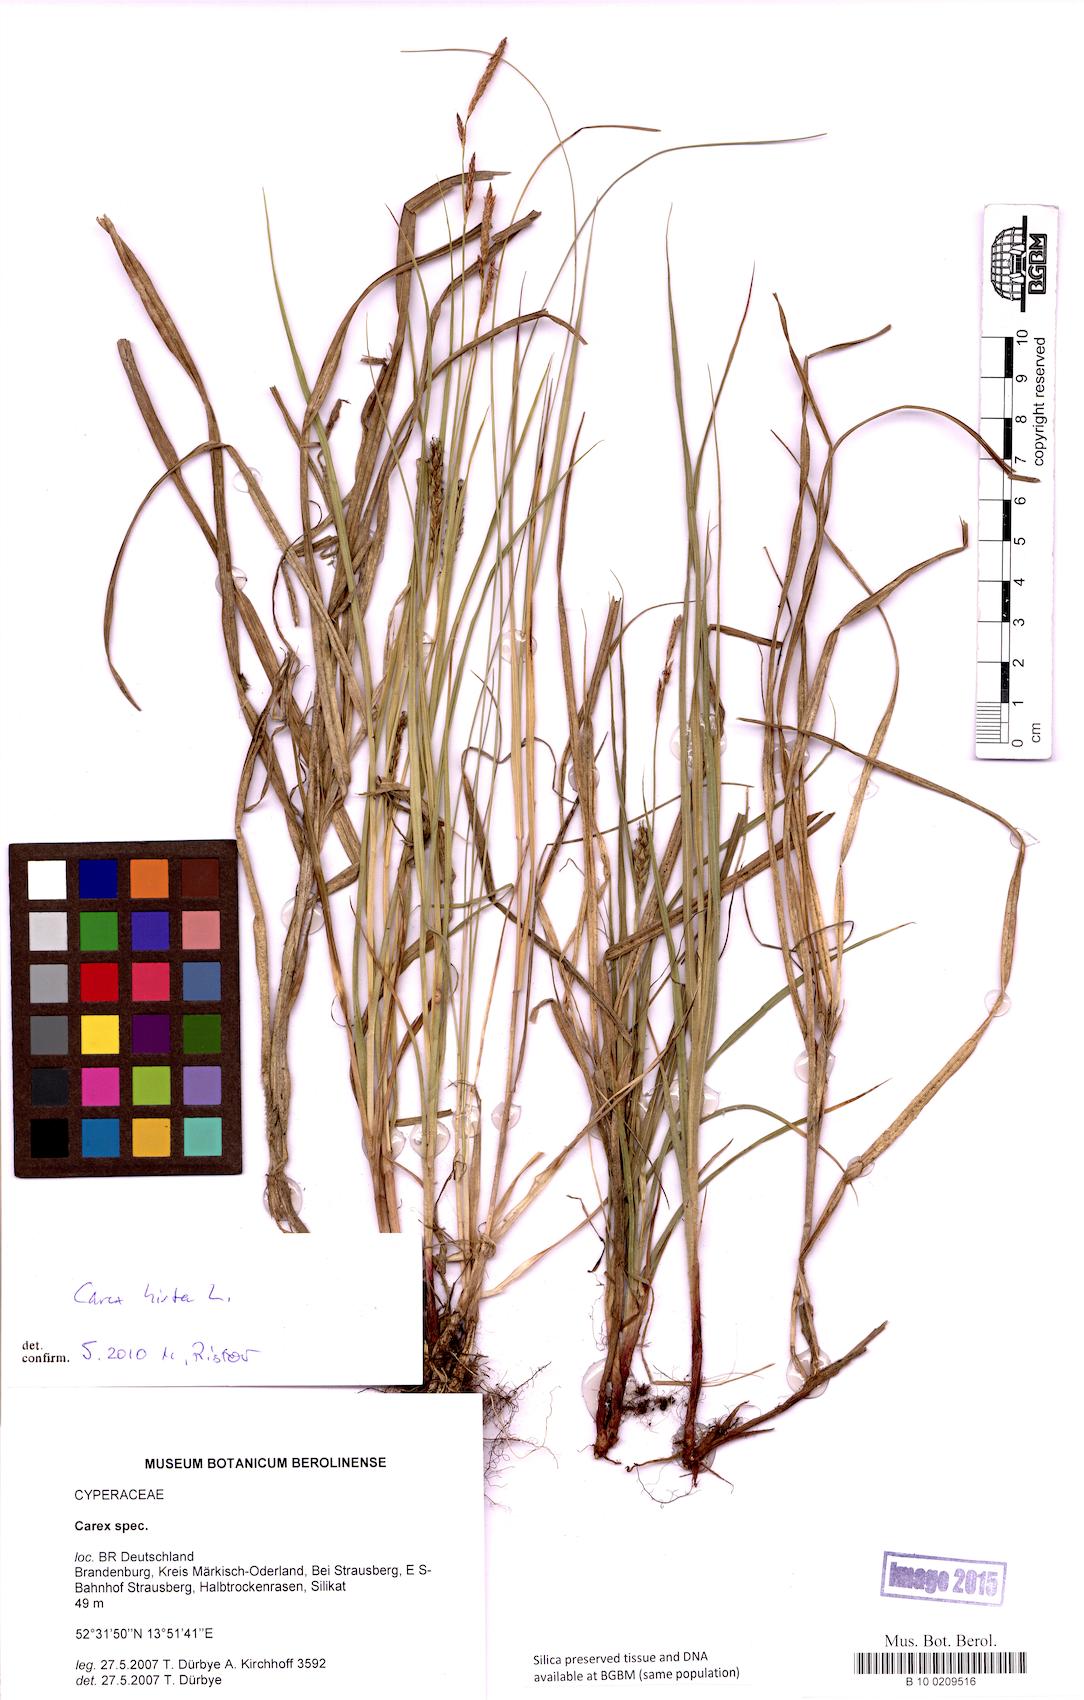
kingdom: Plantae
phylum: Tracheophyta
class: Liliopsida
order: Poales
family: Cyperaceae
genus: Carex
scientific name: Carex
